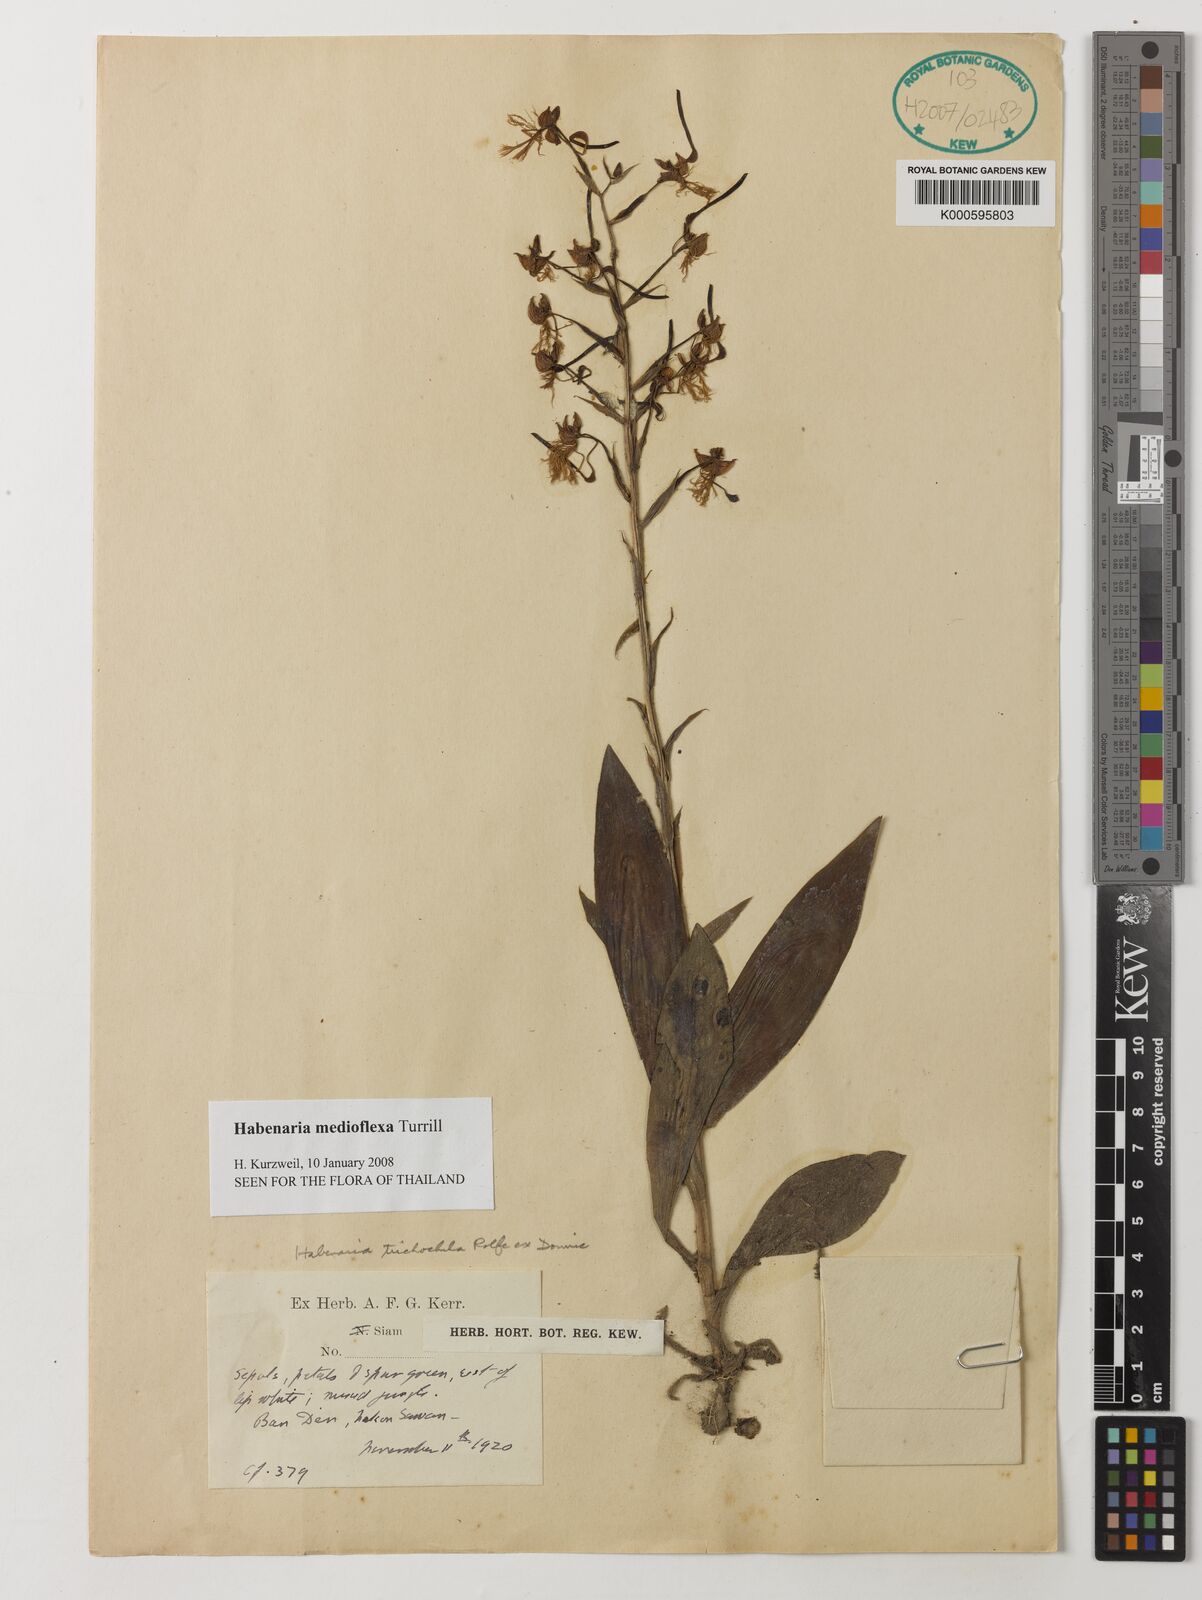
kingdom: Plantae
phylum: Tracheophyta
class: Liliopsida
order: Asparagales
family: Orchidaceae
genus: Habenaria
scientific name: Habenaria medioflexa
